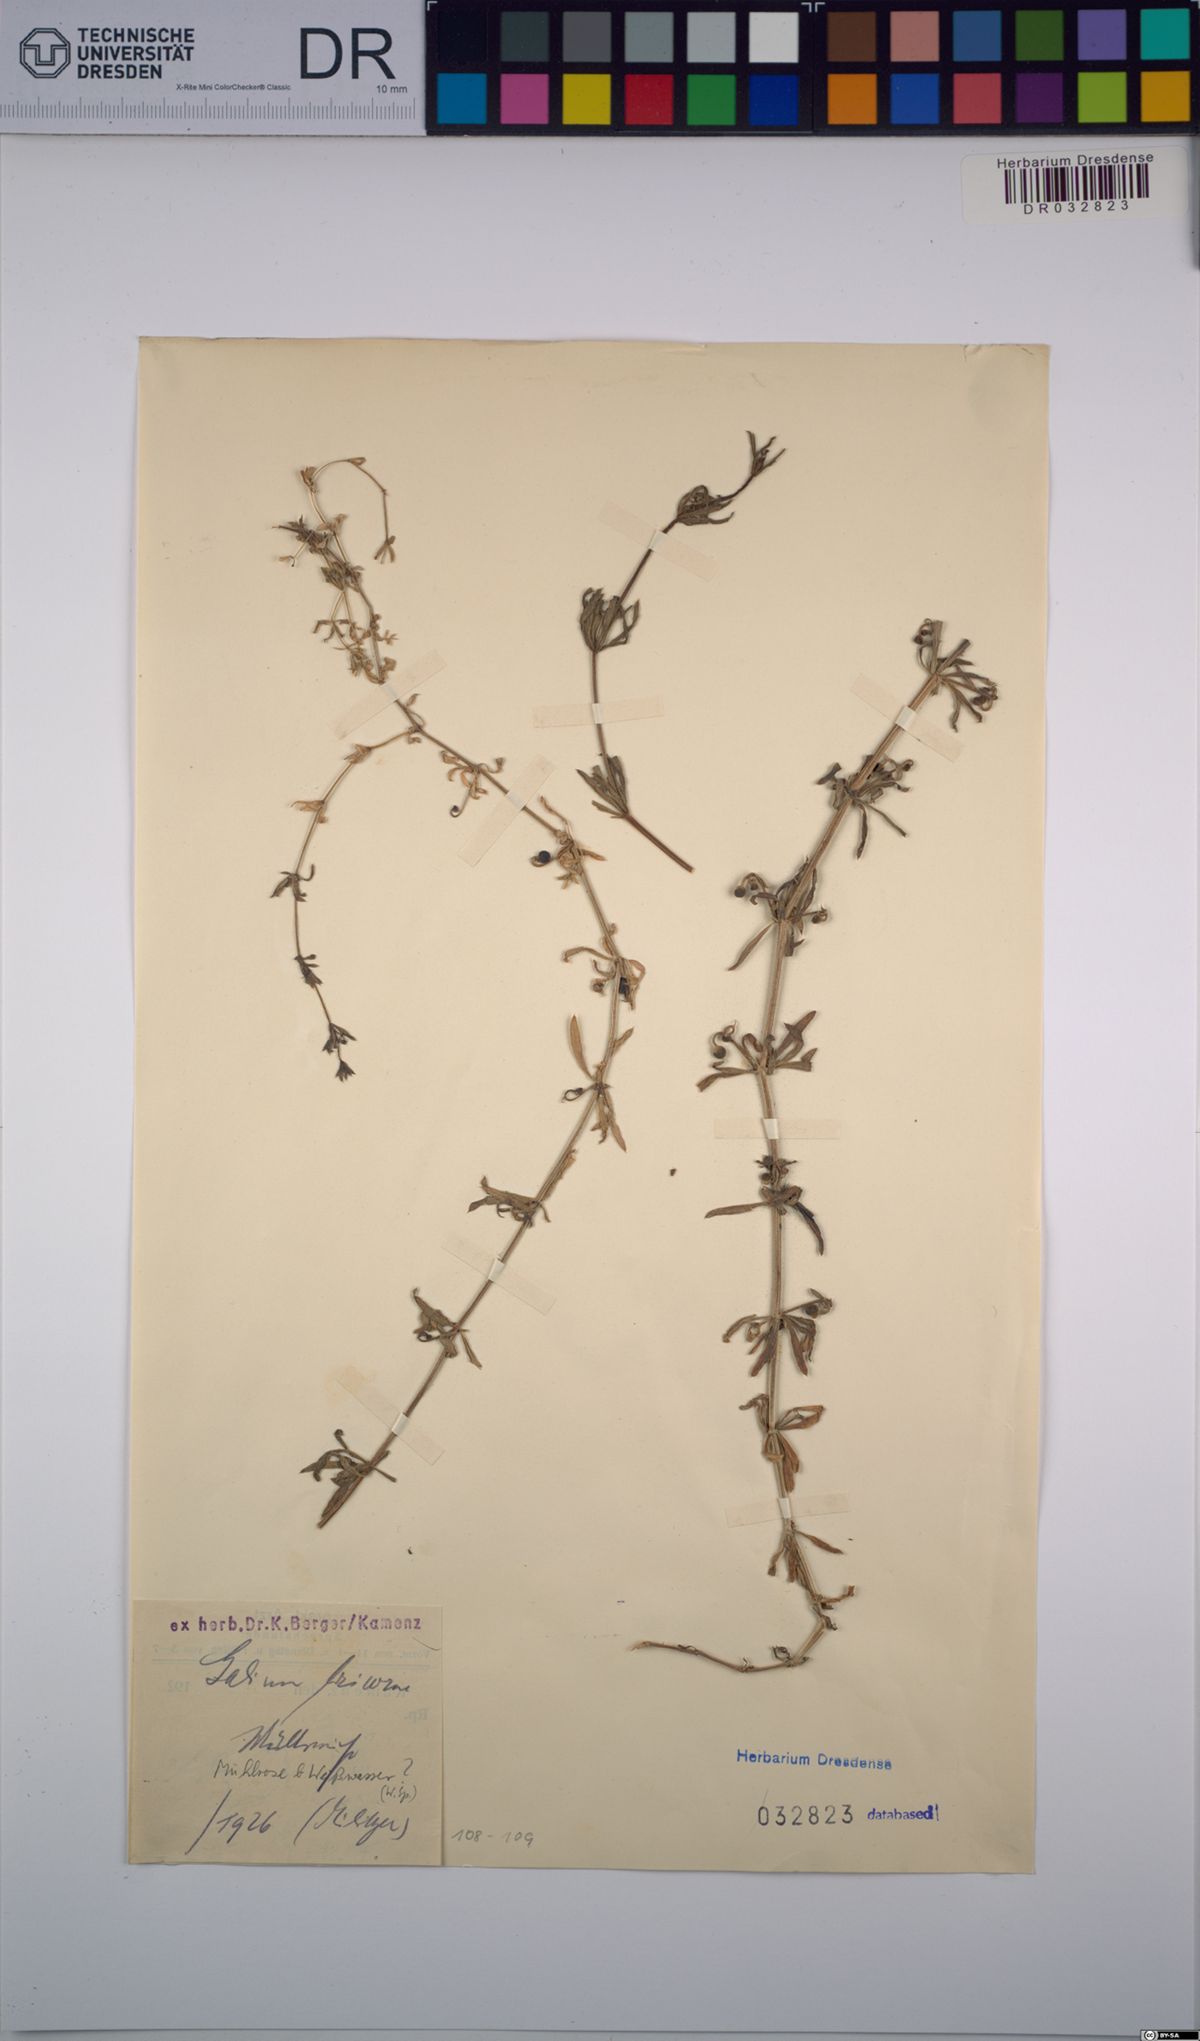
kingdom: Plantae
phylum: Tracheophyta
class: Magnoliopsida
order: Gentianales
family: Rubiaceae
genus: Galium
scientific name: Galium tricornutum
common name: Corn cleavers
